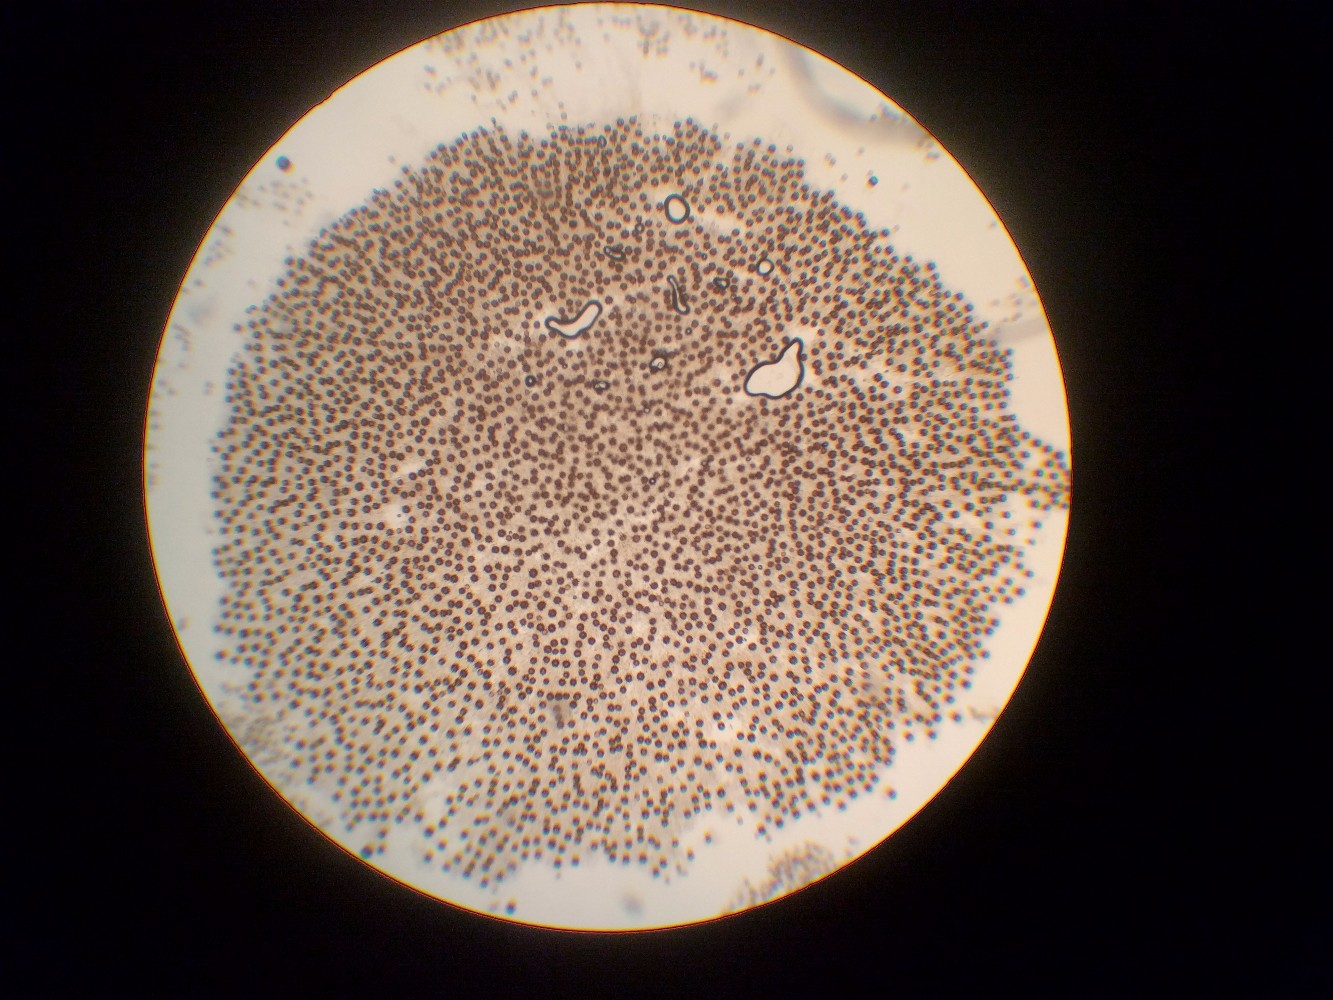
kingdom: Fungi
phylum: Basidiomycota
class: Agaricomycetes
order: Boletales
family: Sclerodermataceae
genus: Scleroderma
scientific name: Scleroderma bovista
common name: bovist-bruskbold
